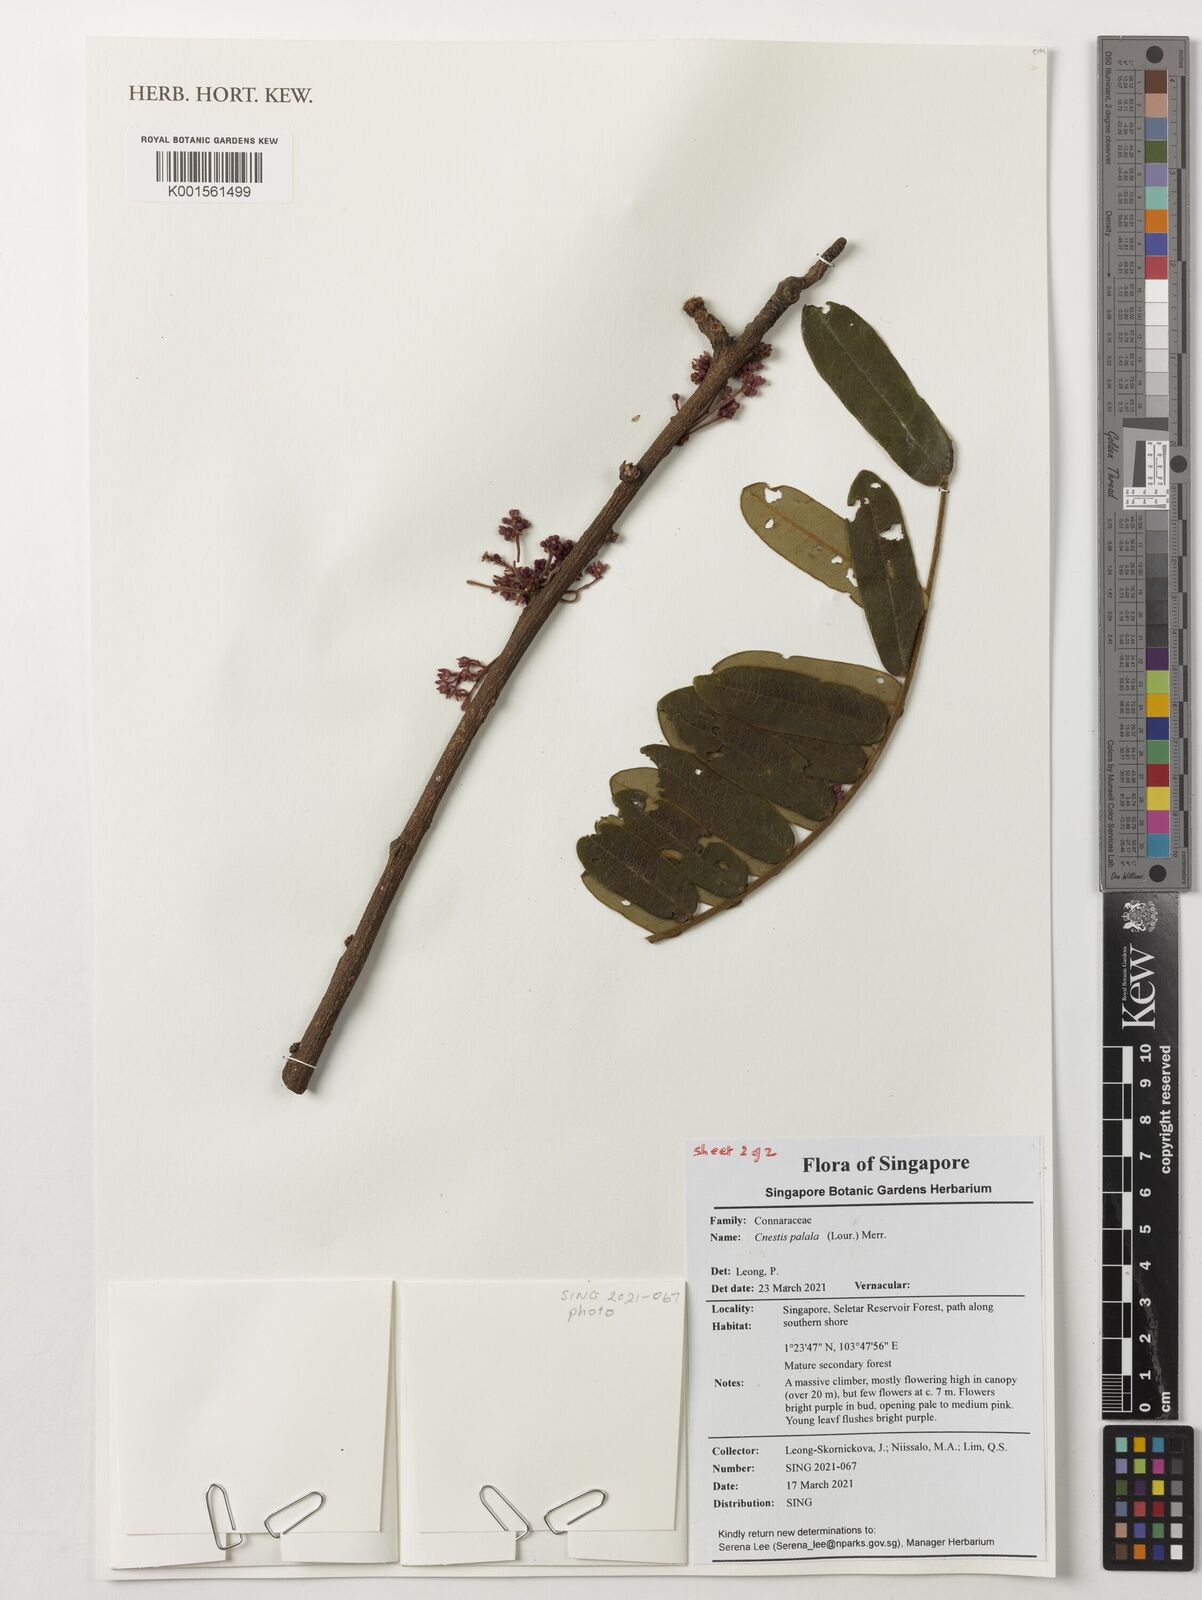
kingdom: Plantae
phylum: Tracheophyta
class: Magnoliopsida
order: Oxalidales
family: Connaraceae
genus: Cnestis
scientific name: Cnestis palala
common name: Stinging-hair cnestis
